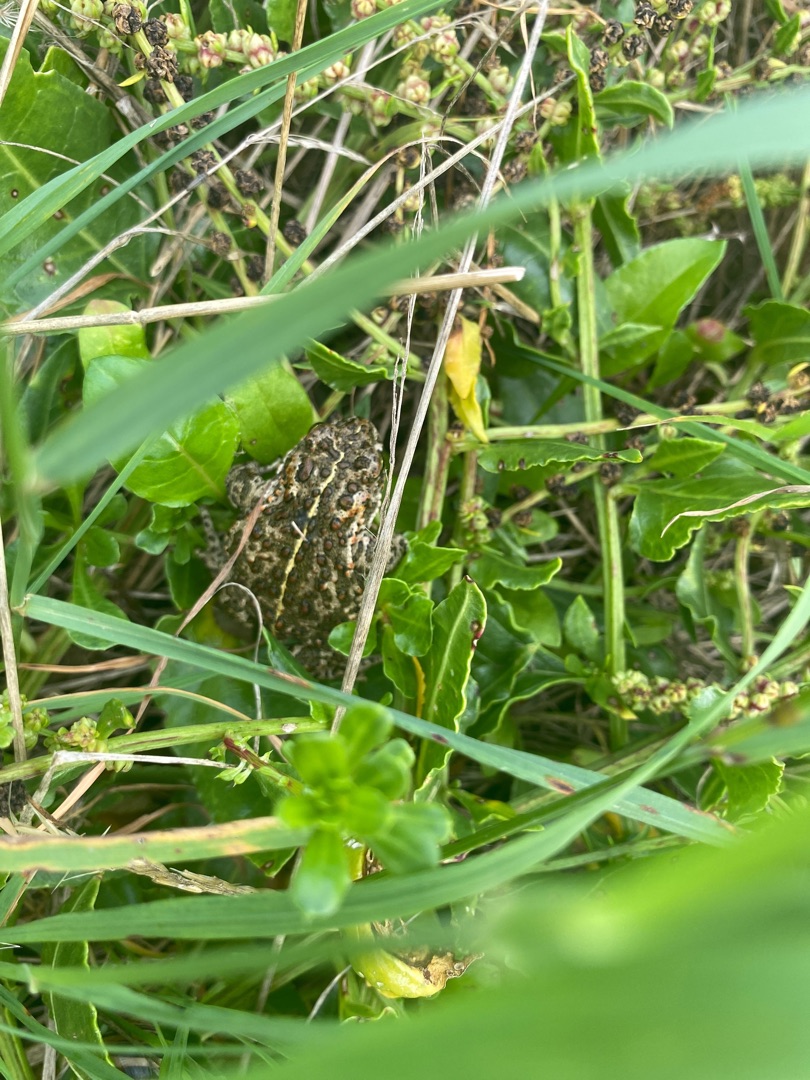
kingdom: Animalia
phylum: Chordata
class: Amphibia
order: Anura
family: Bufonidae
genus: Epidalea
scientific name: Epidalea calamita
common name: Strandtudse
